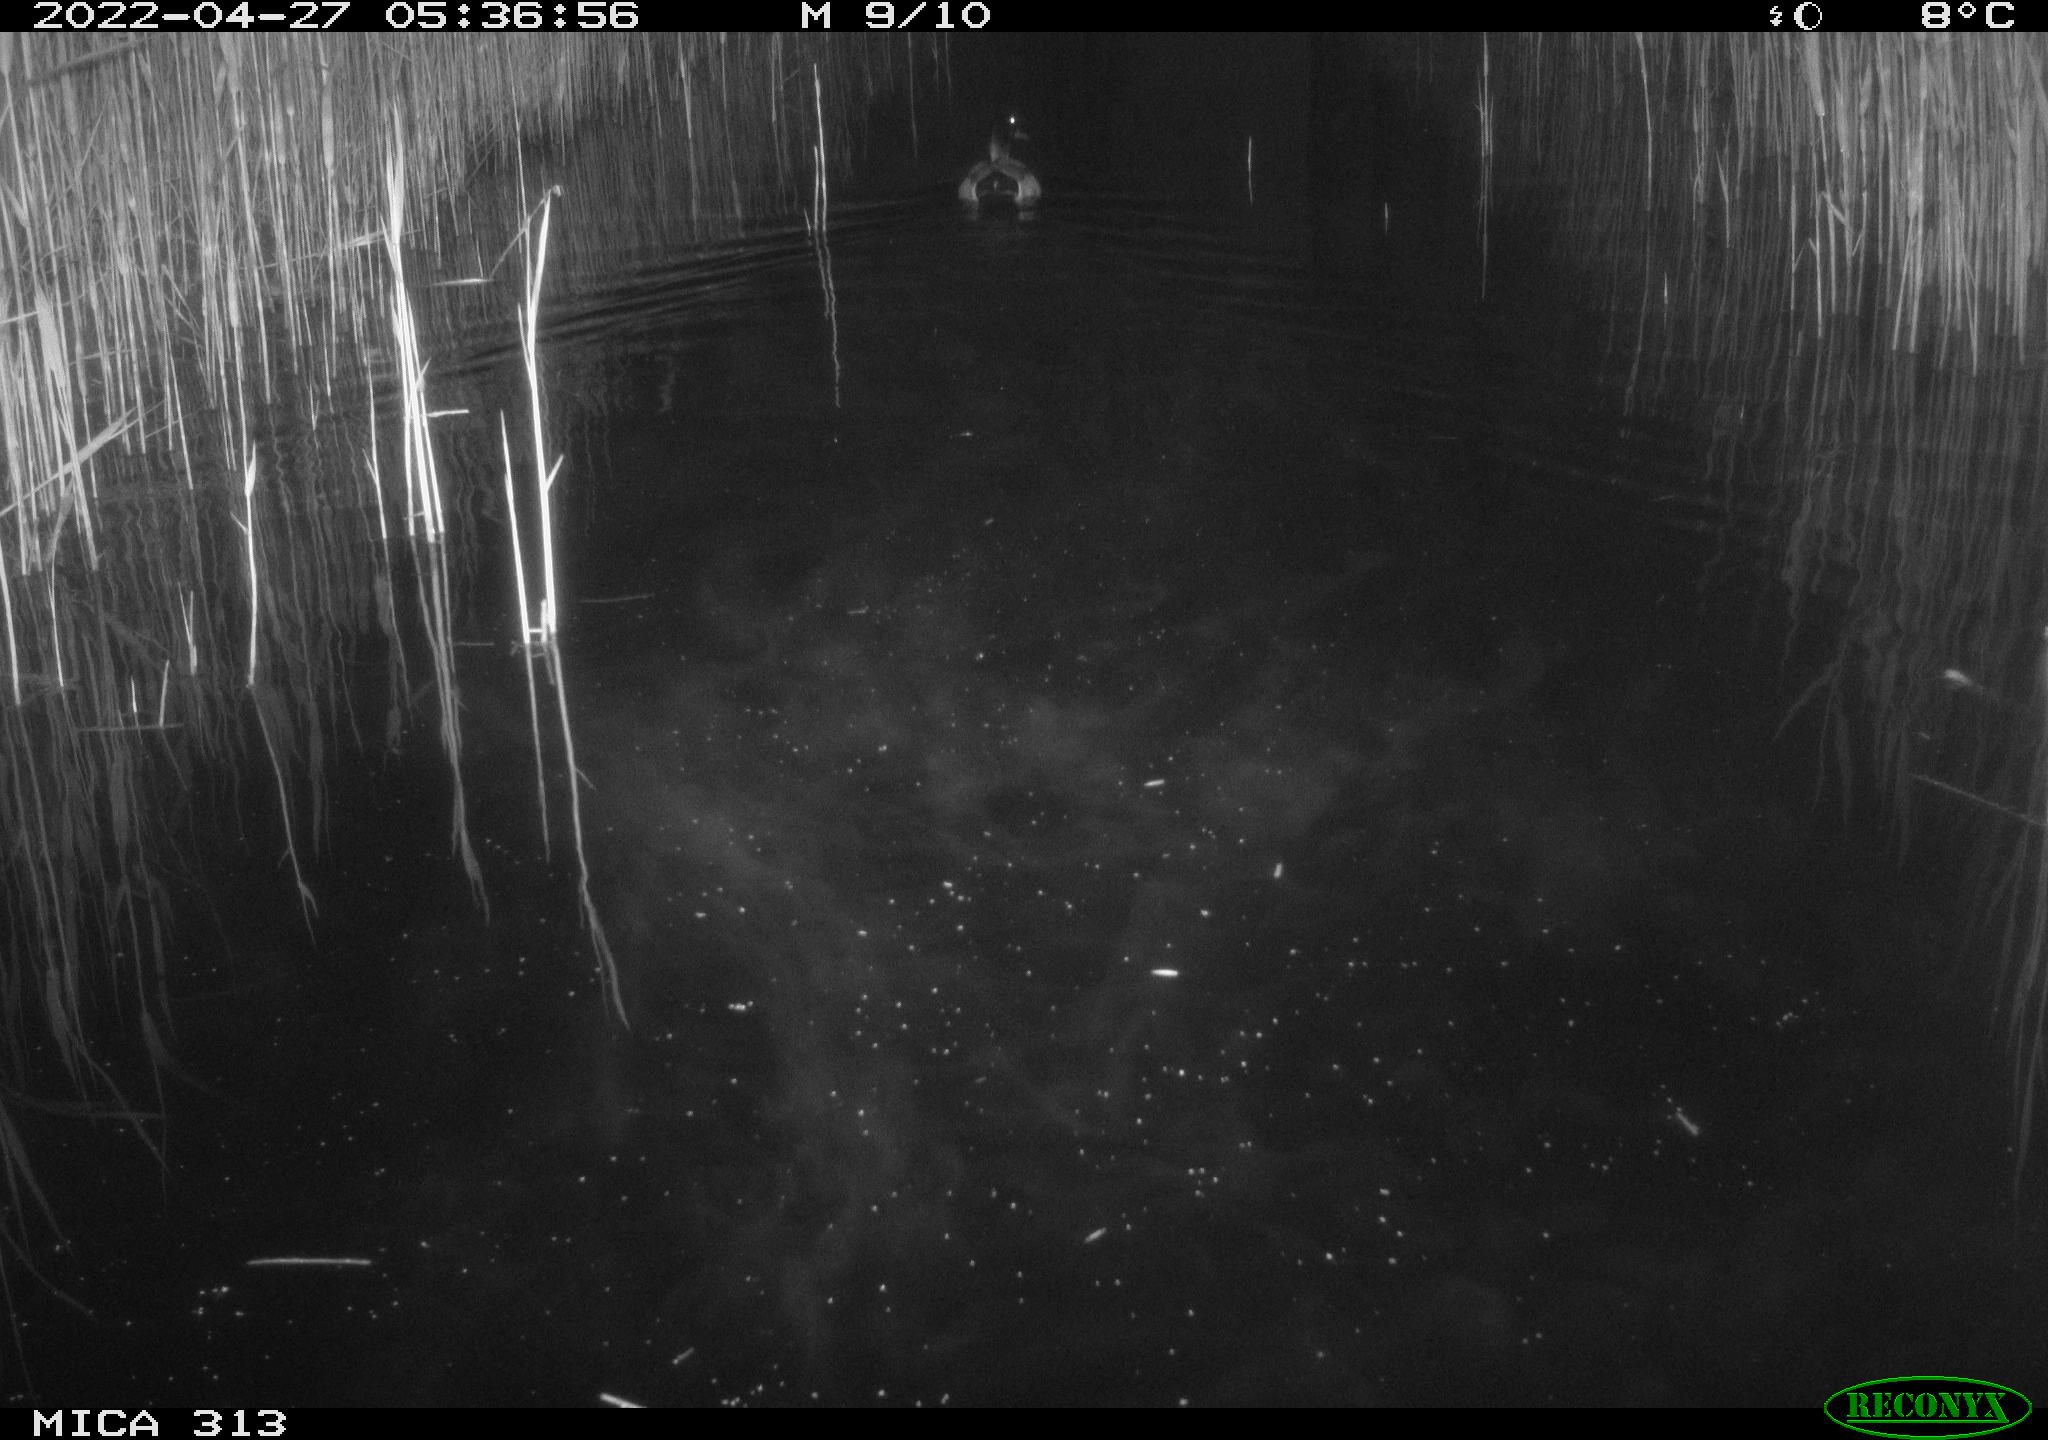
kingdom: Animalia
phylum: Chordata
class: Aves
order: Anseriformes
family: Anatidae
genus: Anas
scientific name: Anas platyrhynchos
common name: Mallard
